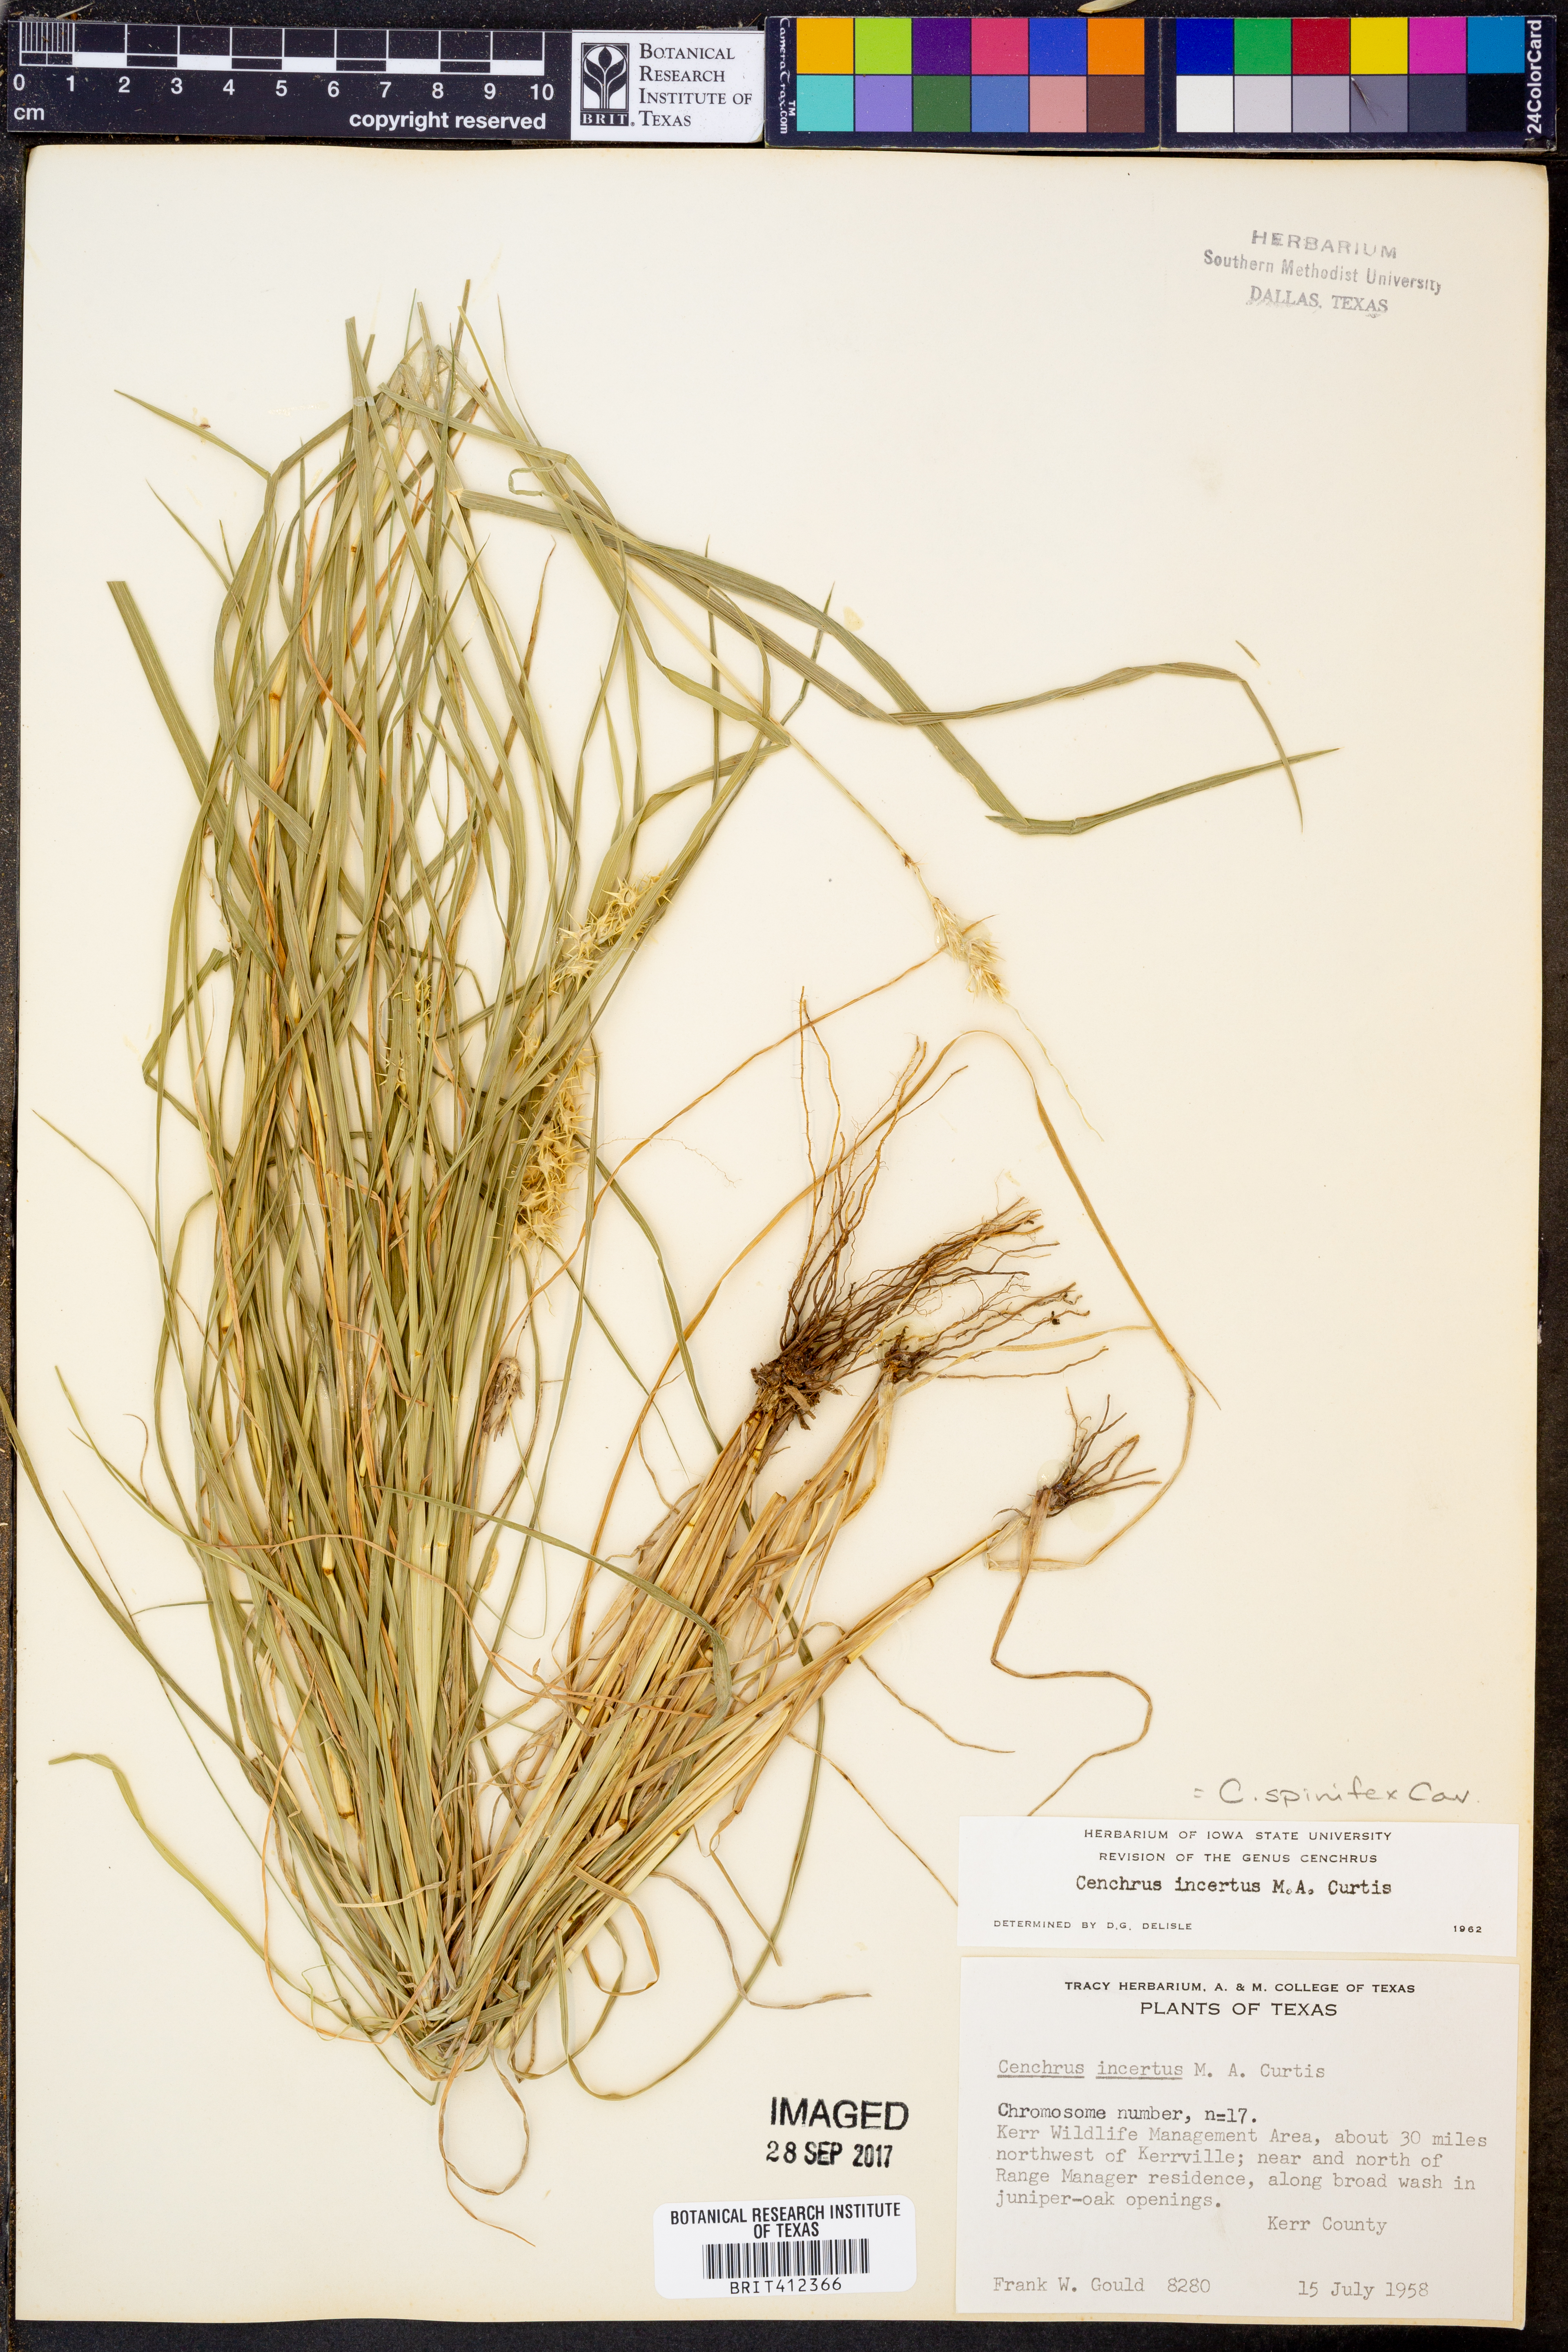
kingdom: Plantae
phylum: Tracheophyta
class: Liliopsida
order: Poales
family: Poaceae
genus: Cenchrus
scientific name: Cenchrus spinifex
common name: Coast sandbur
